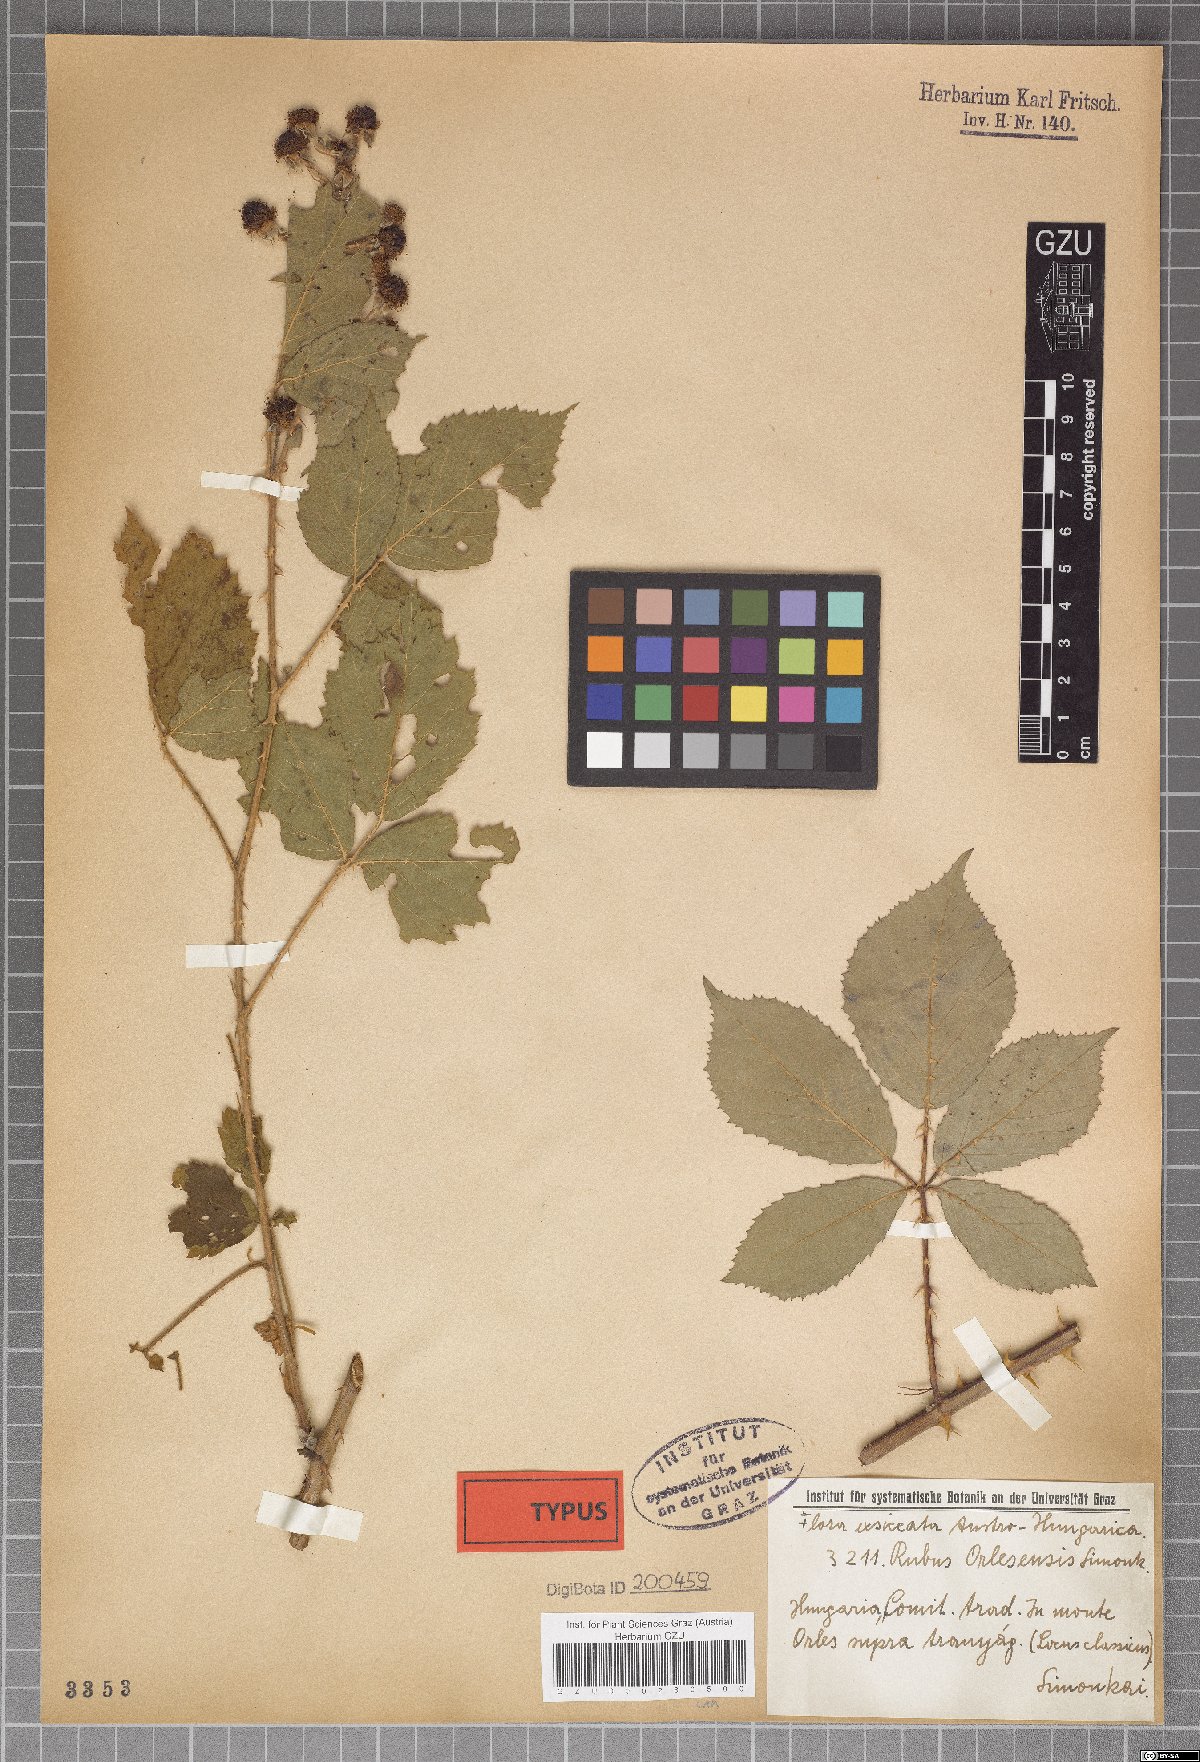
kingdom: Plantae
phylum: Tracheophyta
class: Magnoliopsida
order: Rosales
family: Rosaceae
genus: Rubus
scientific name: Rubus radula
